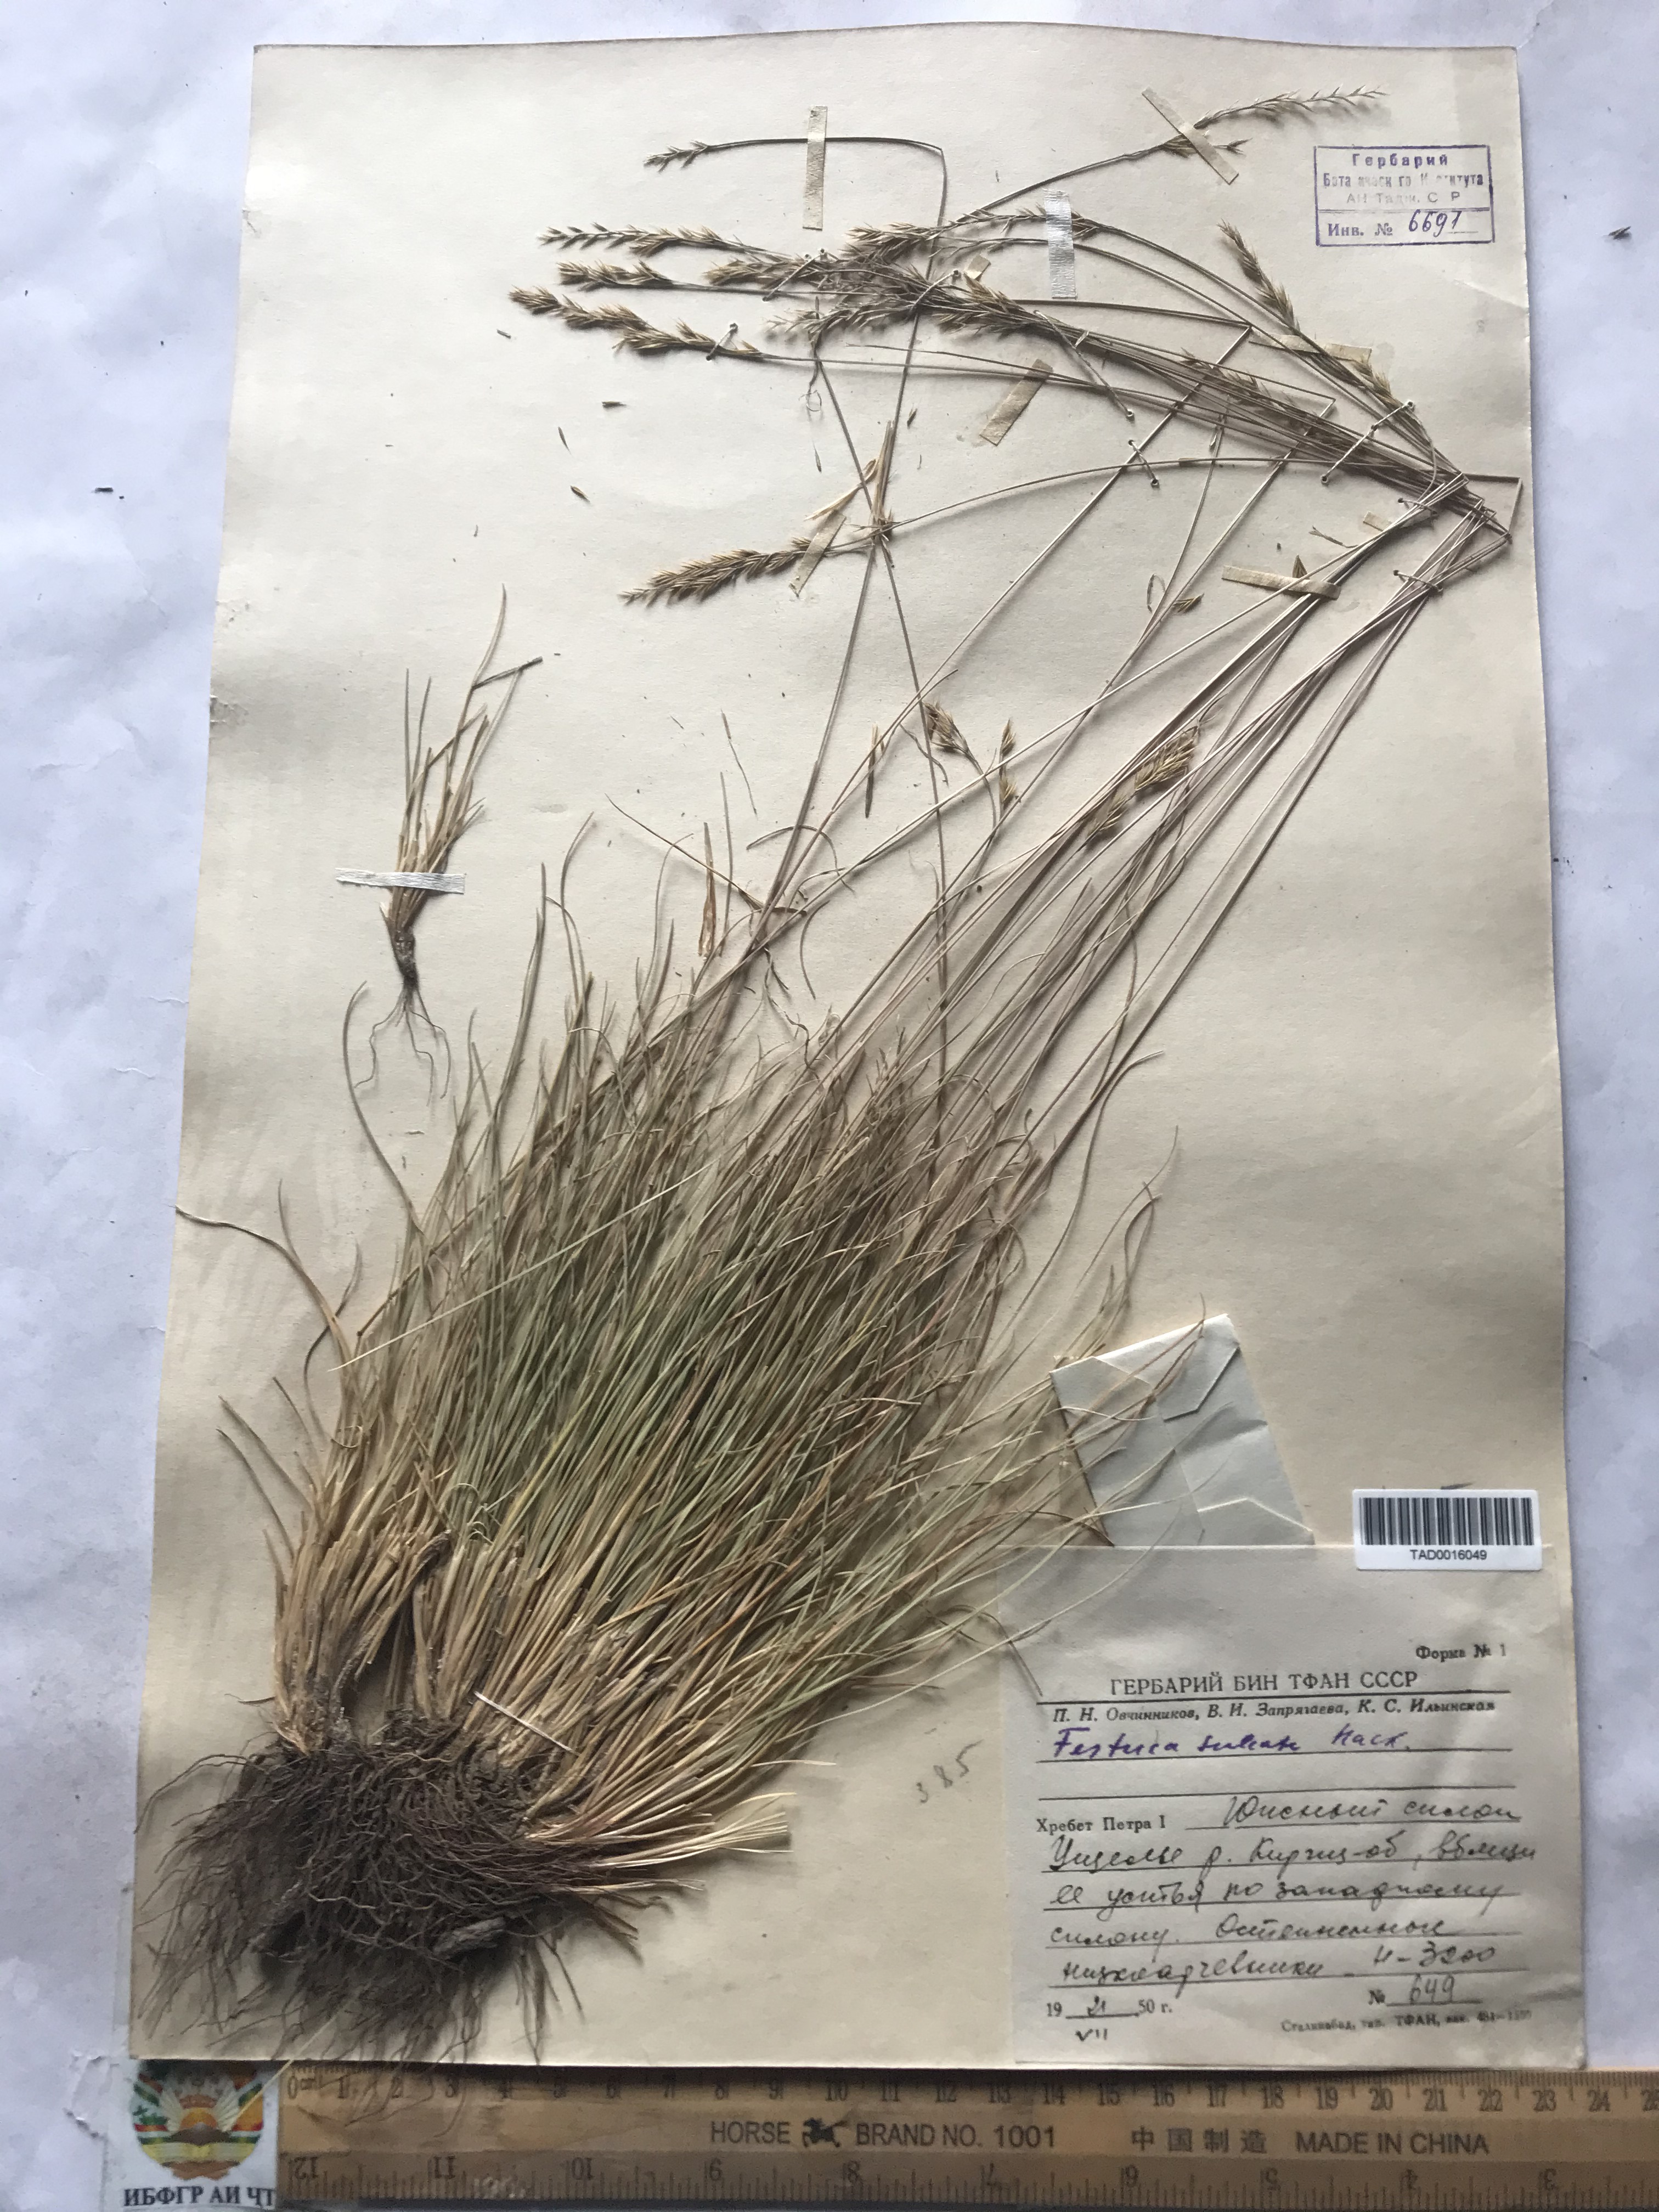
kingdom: Plantae
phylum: Tracheophyta
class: Liliopsida
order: Poales
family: Poaceae
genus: Festuca
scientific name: Festuca sulcata
